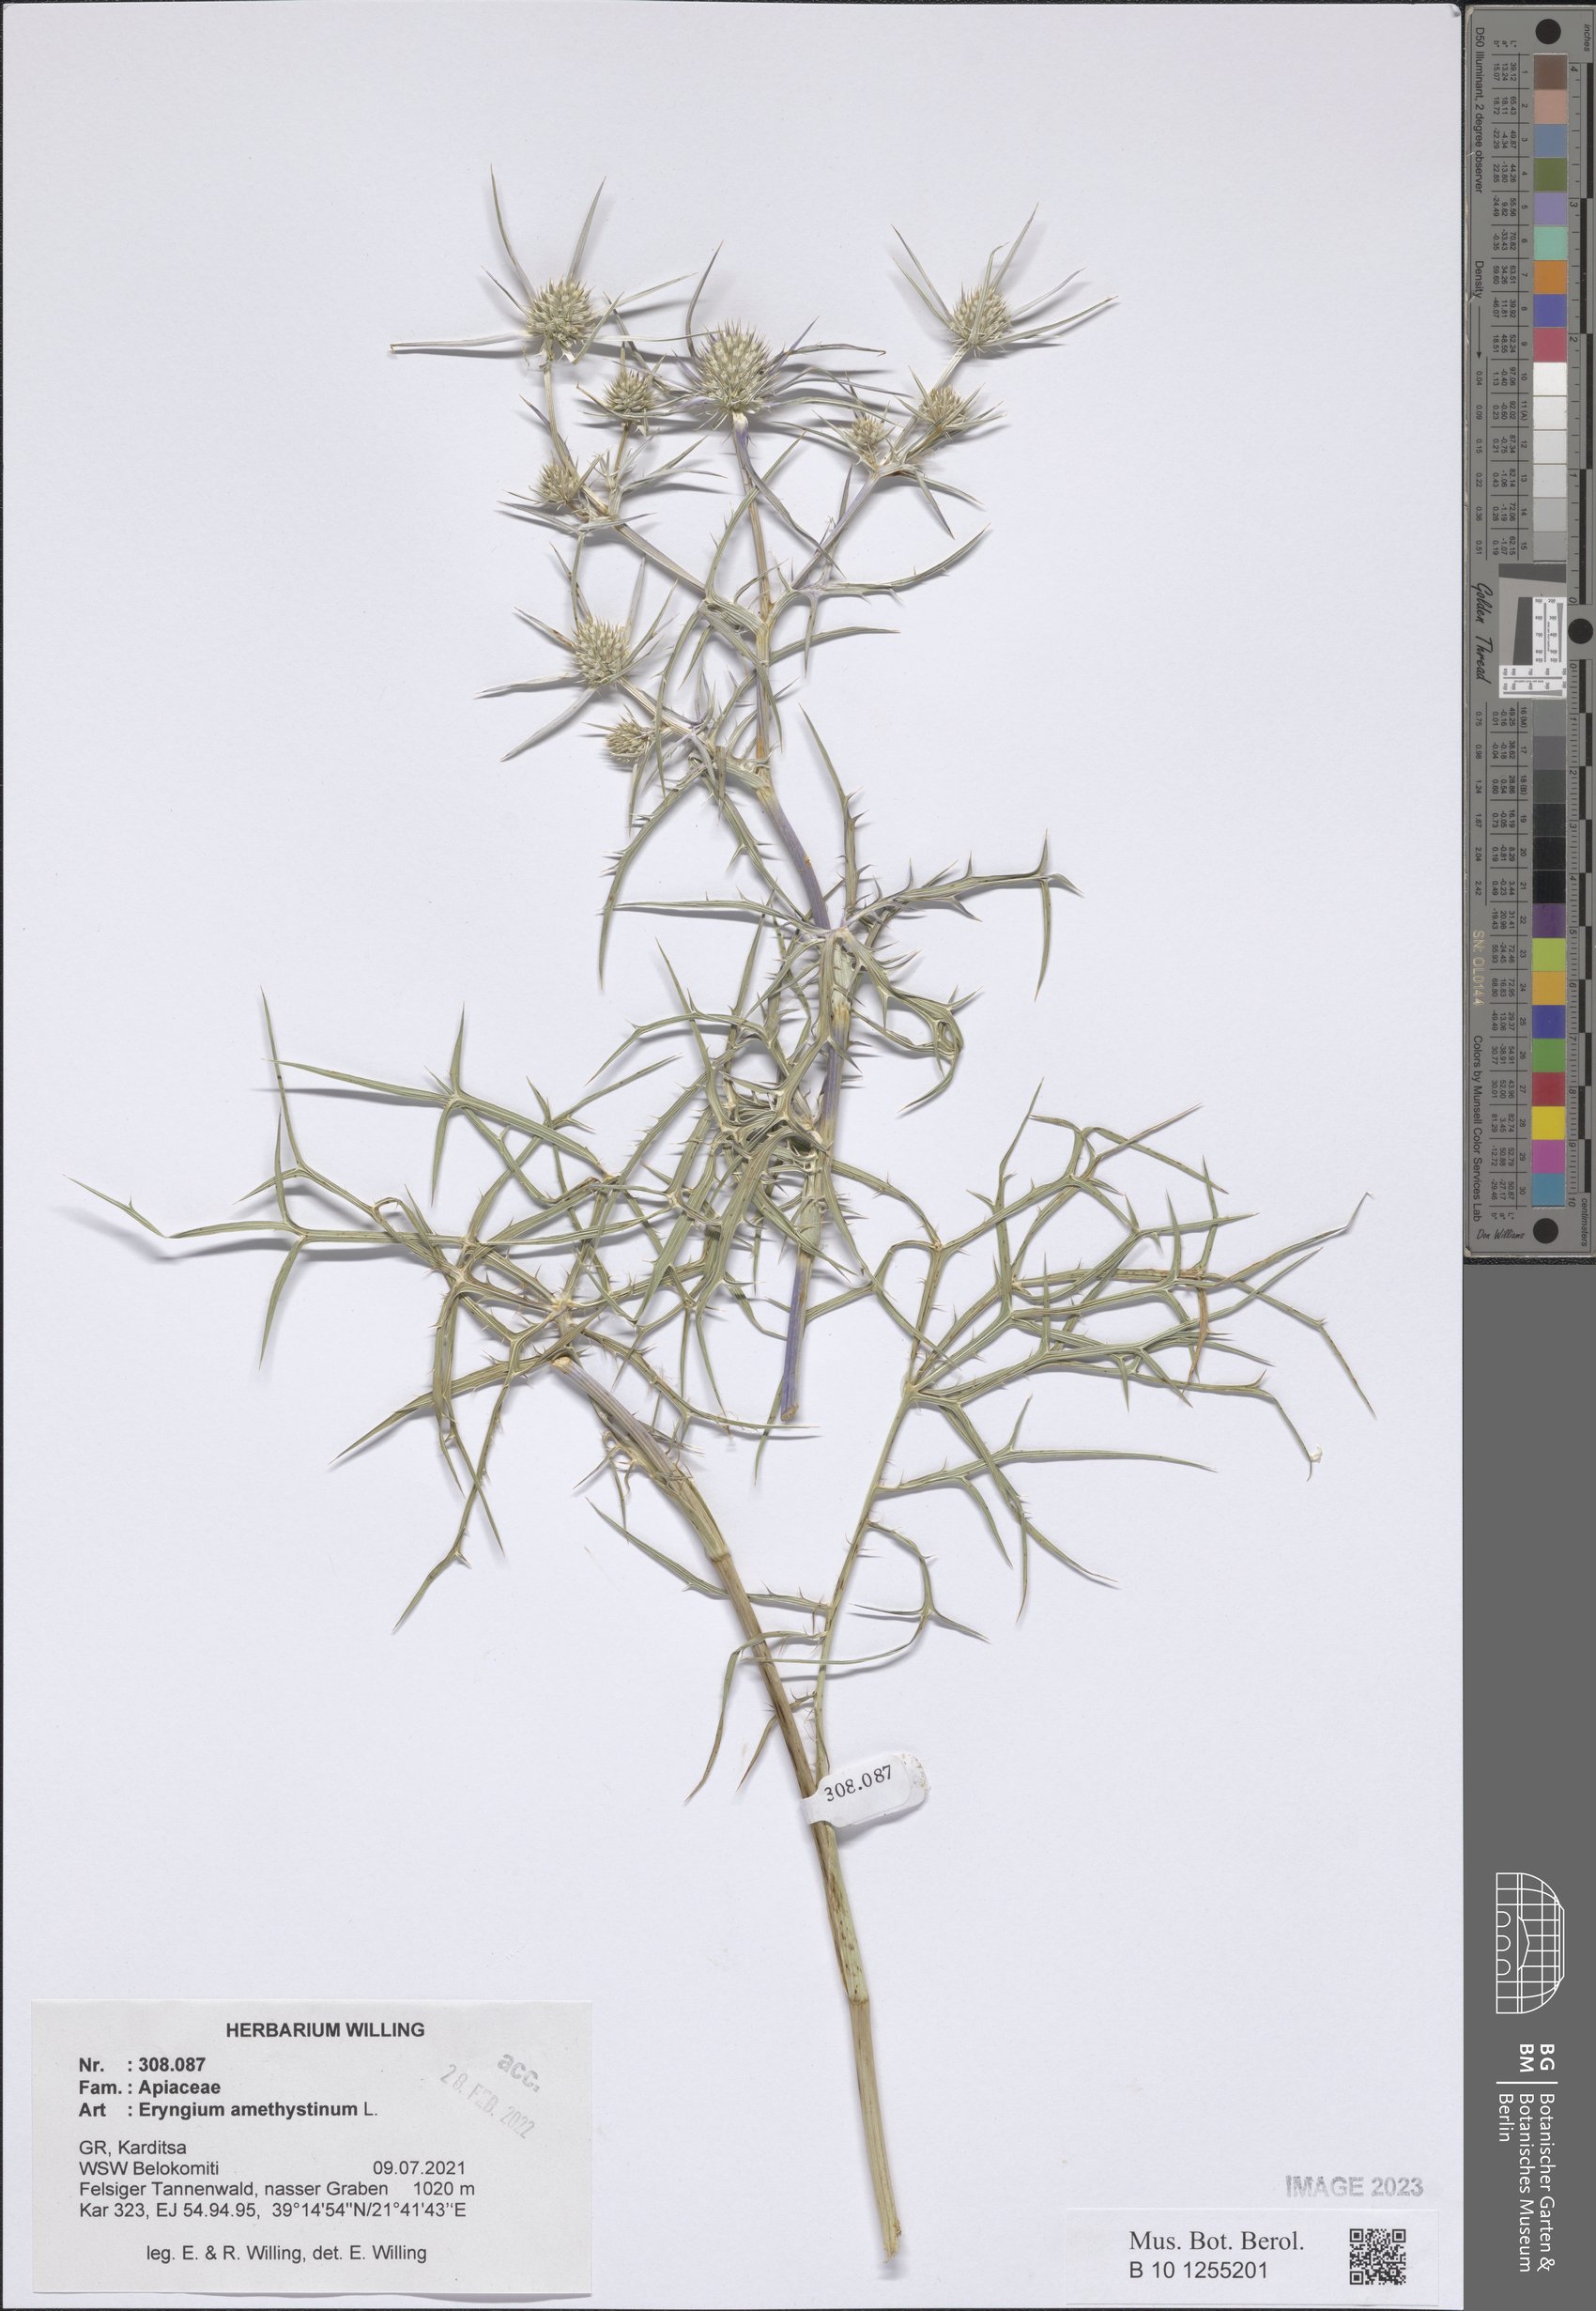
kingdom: Plantae
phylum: Tracheophyta
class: Magnoliopsida
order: Apiales
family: Apiaceae
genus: Eryngium
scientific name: Eryngium amethystinum
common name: Amethyst eryngo
